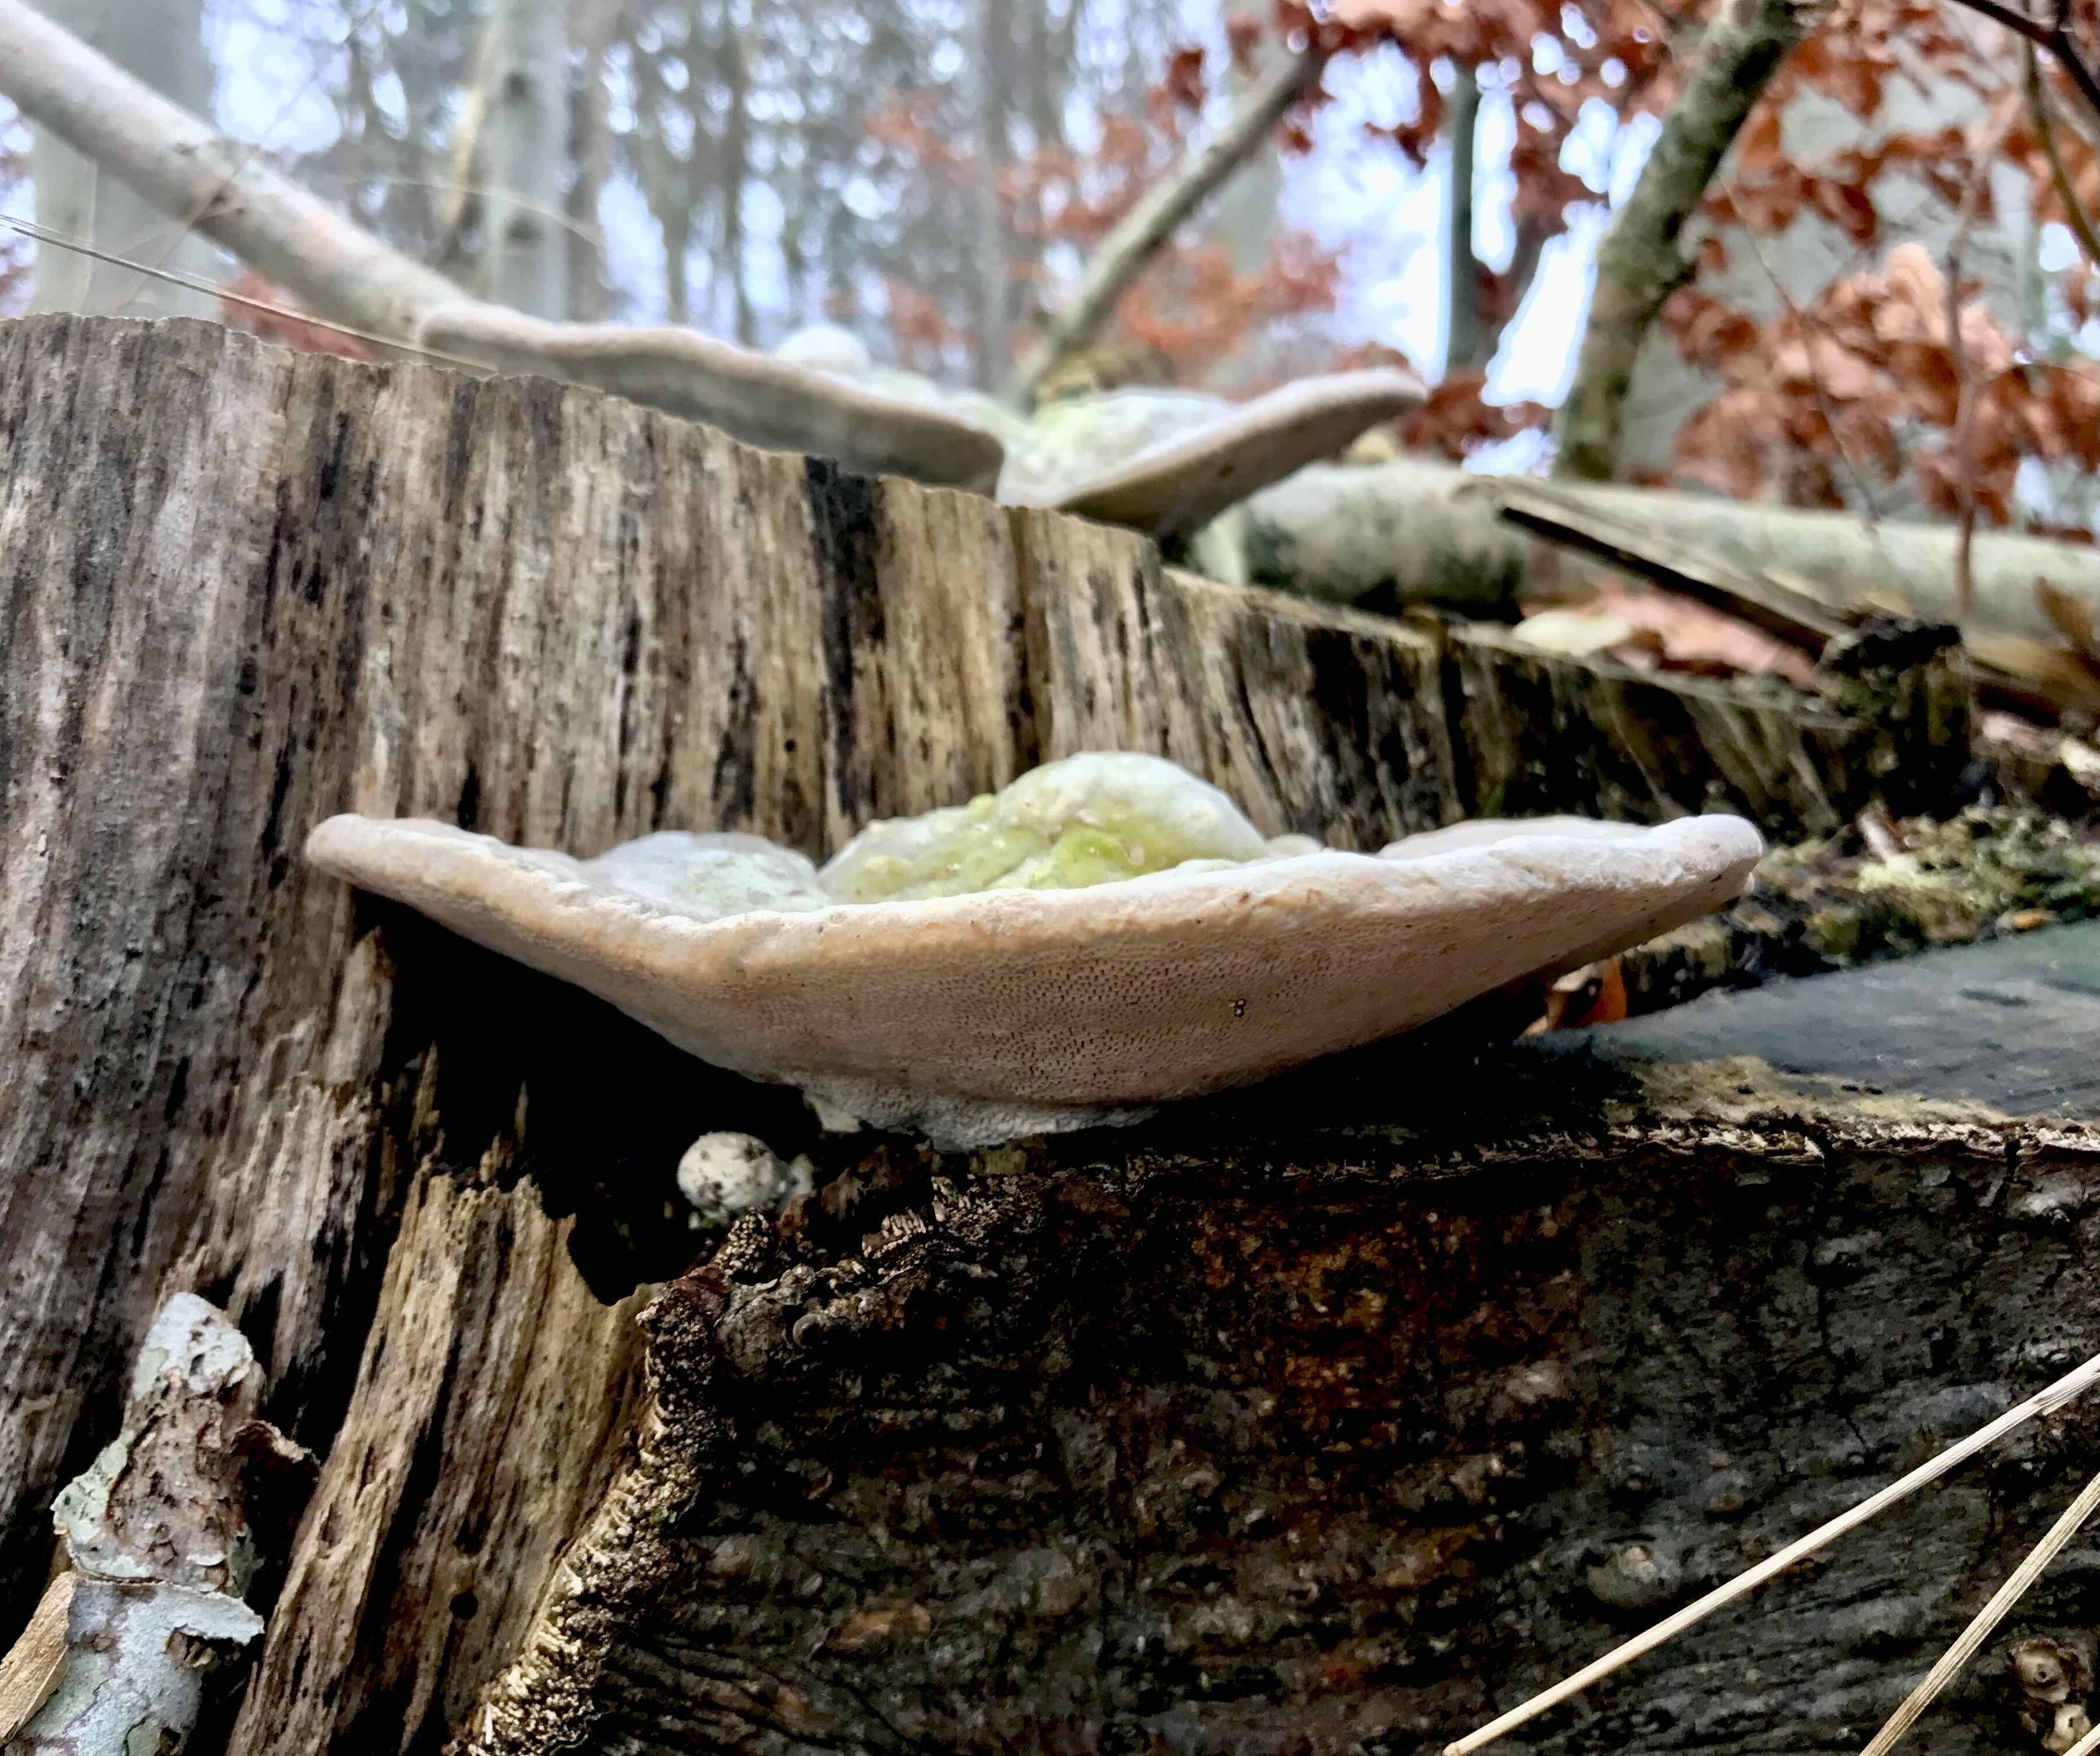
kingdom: Fungi
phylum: Basidiomycota
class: Agaricomycetes
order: Polyporales
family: Polyporaceae
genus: Trametes
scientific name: Trametes gibbosa
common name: puklet læderporesvamp
